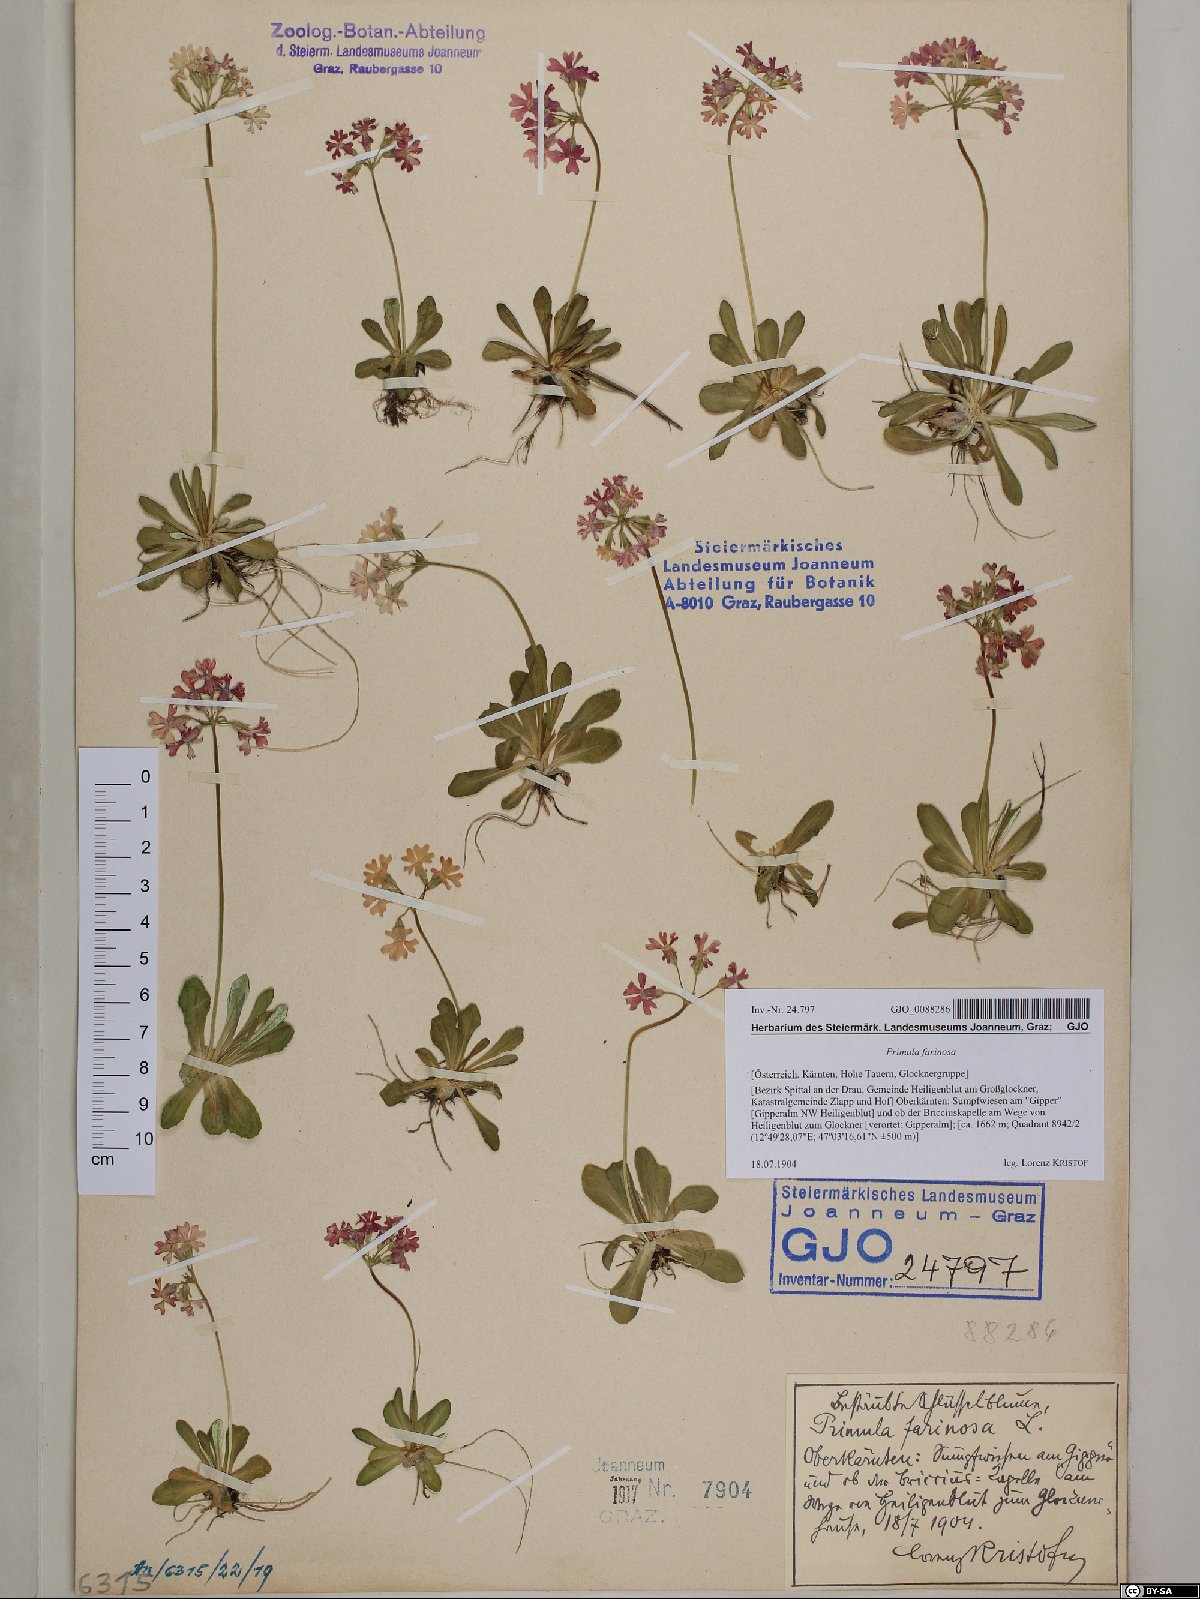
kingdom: Plantae
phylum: Tracheophyta
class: Magnoliopsida
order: Ericales
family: Primulaceae
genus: Primula
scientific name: Primula farinosa
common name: Bird's-eye primrose
